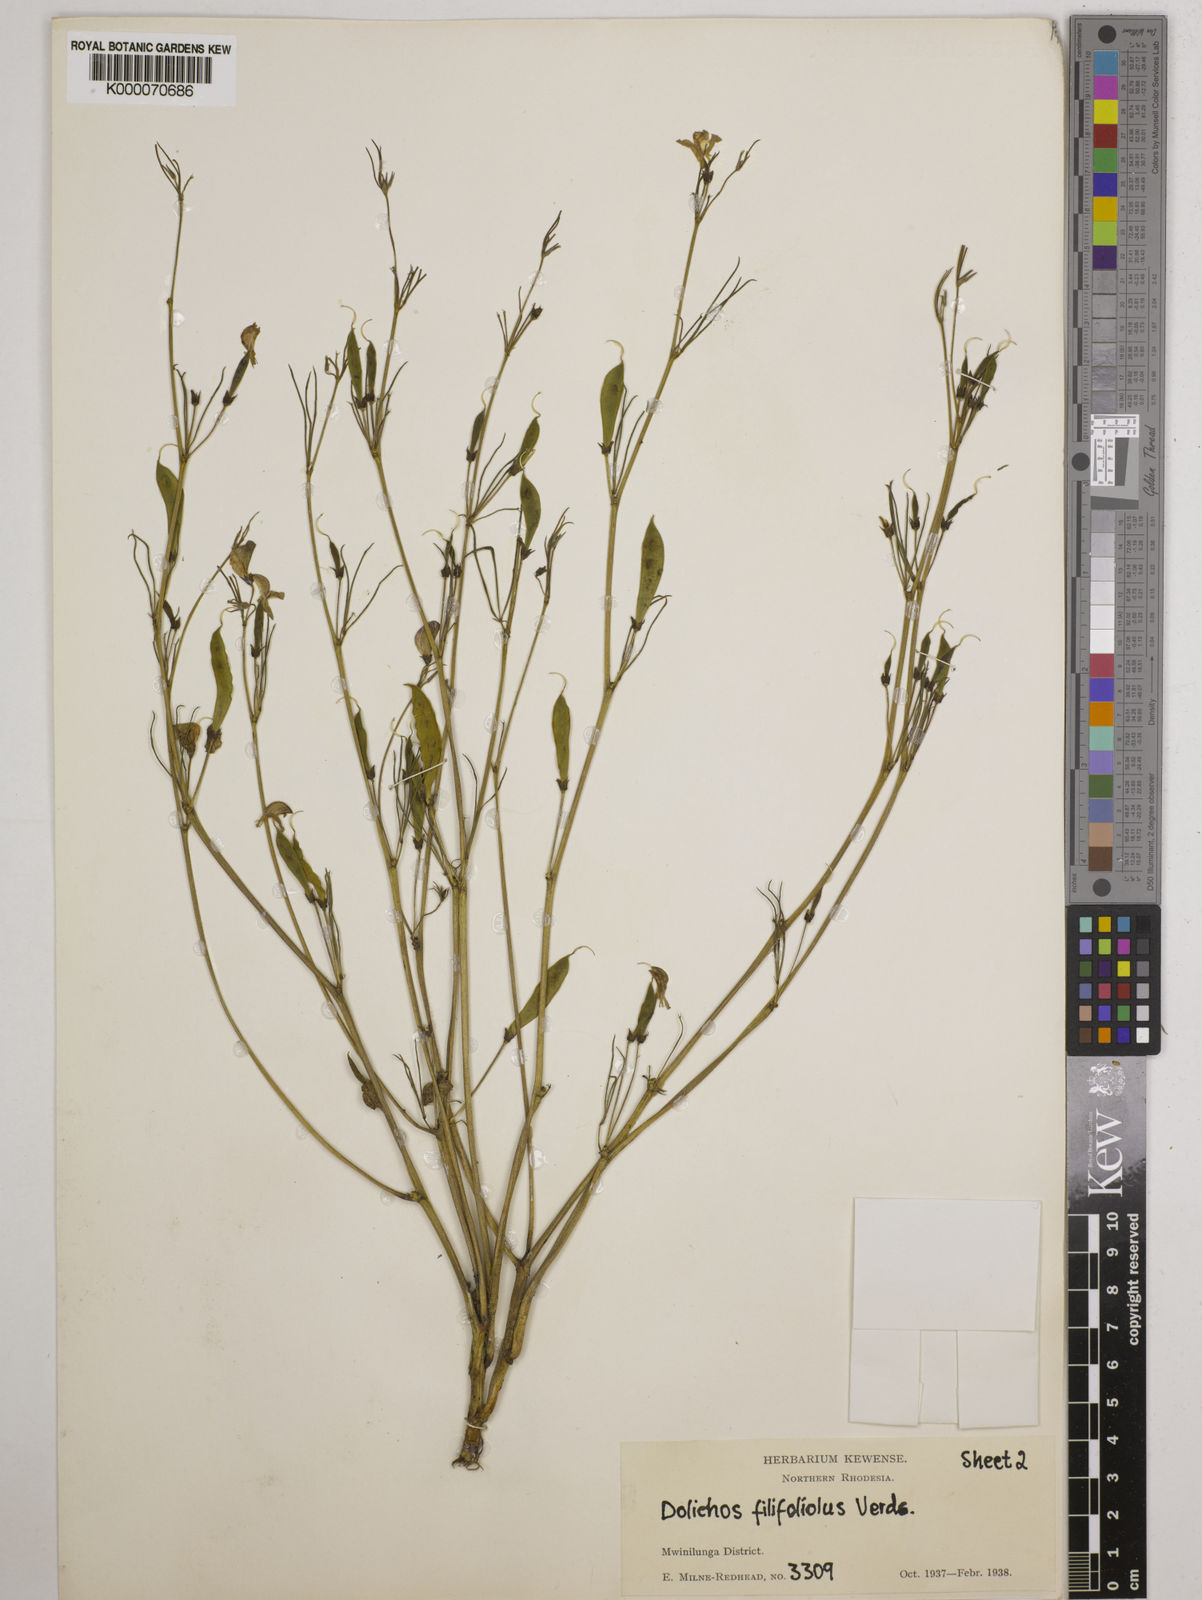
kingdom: Plantae
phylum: Tracheophyta
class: Magnoliopsida
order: Fabales
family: Fabaceae
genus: Dolichos
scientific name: Dolichos filifoliolus
